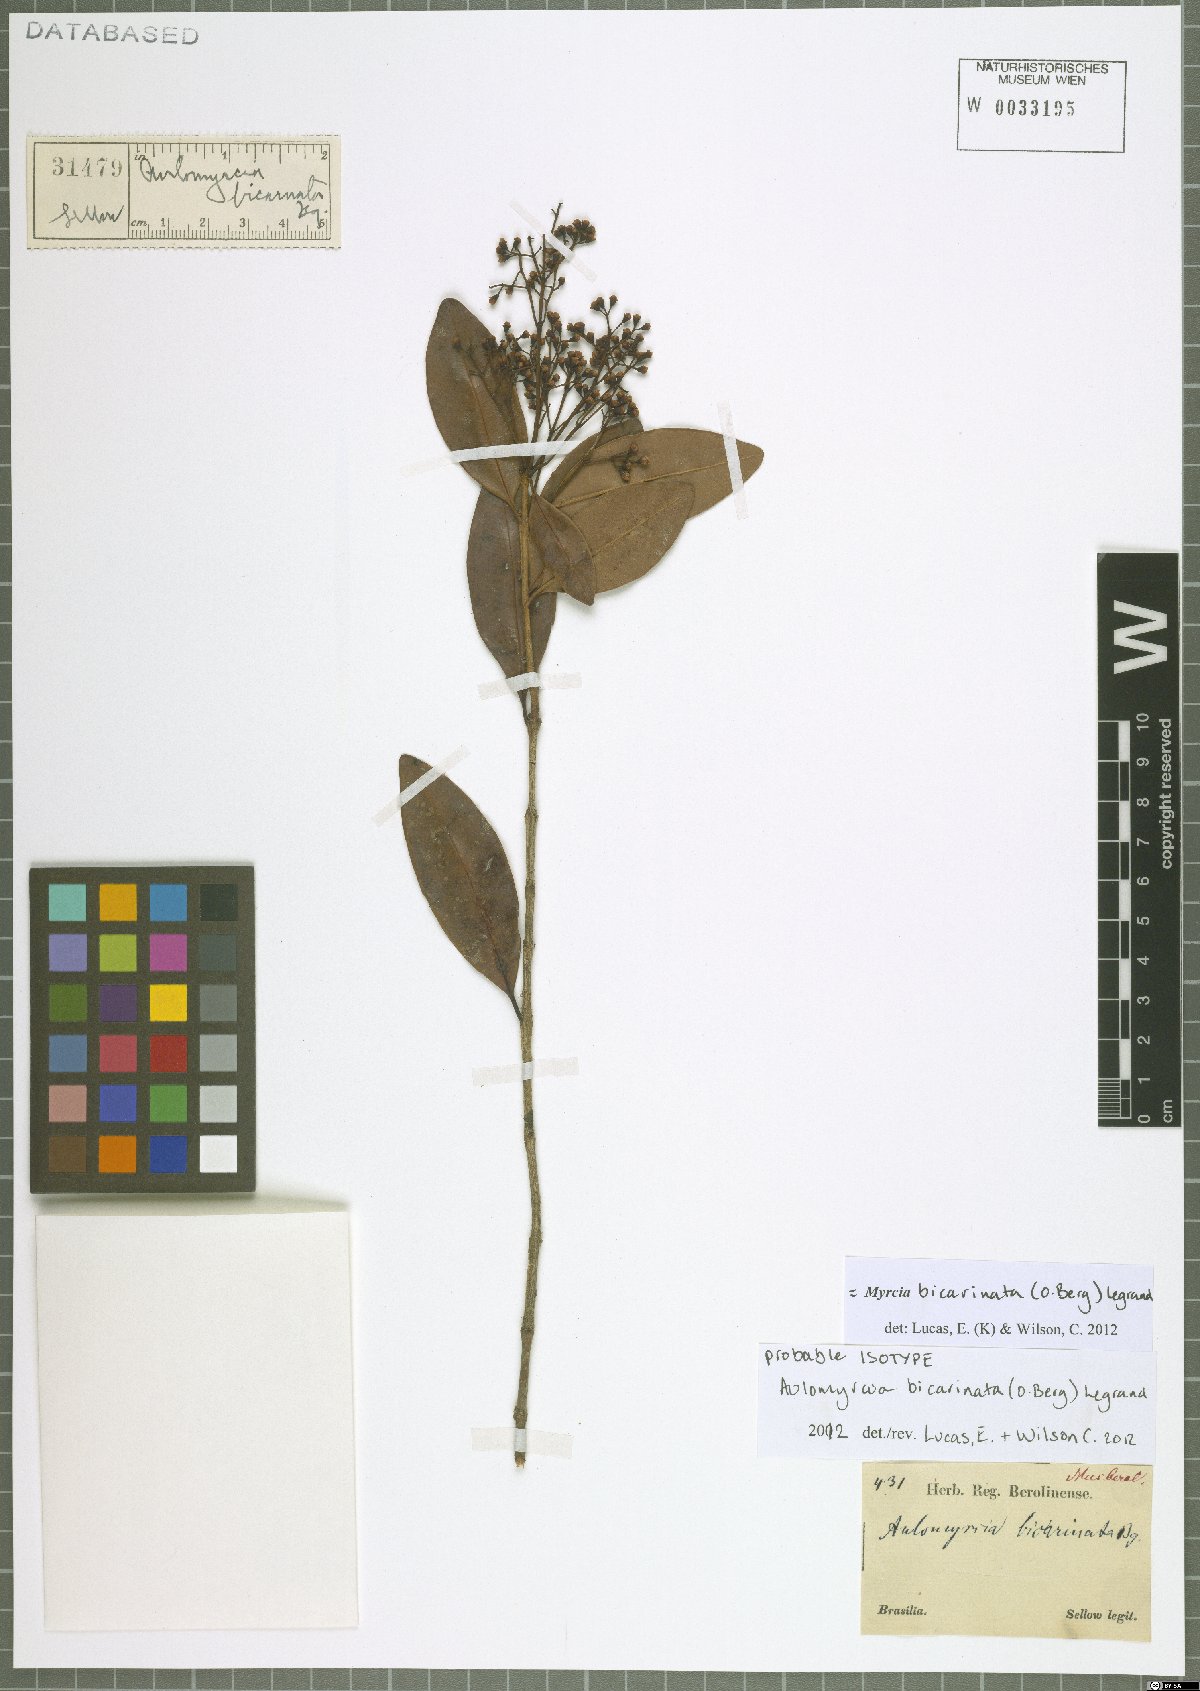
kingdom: Plantae
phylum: Tracheophyta
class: Magnoliopsida
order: Myrtales
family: Myrtaceae
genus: Myrcia
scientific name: Myrcia bicarinata
